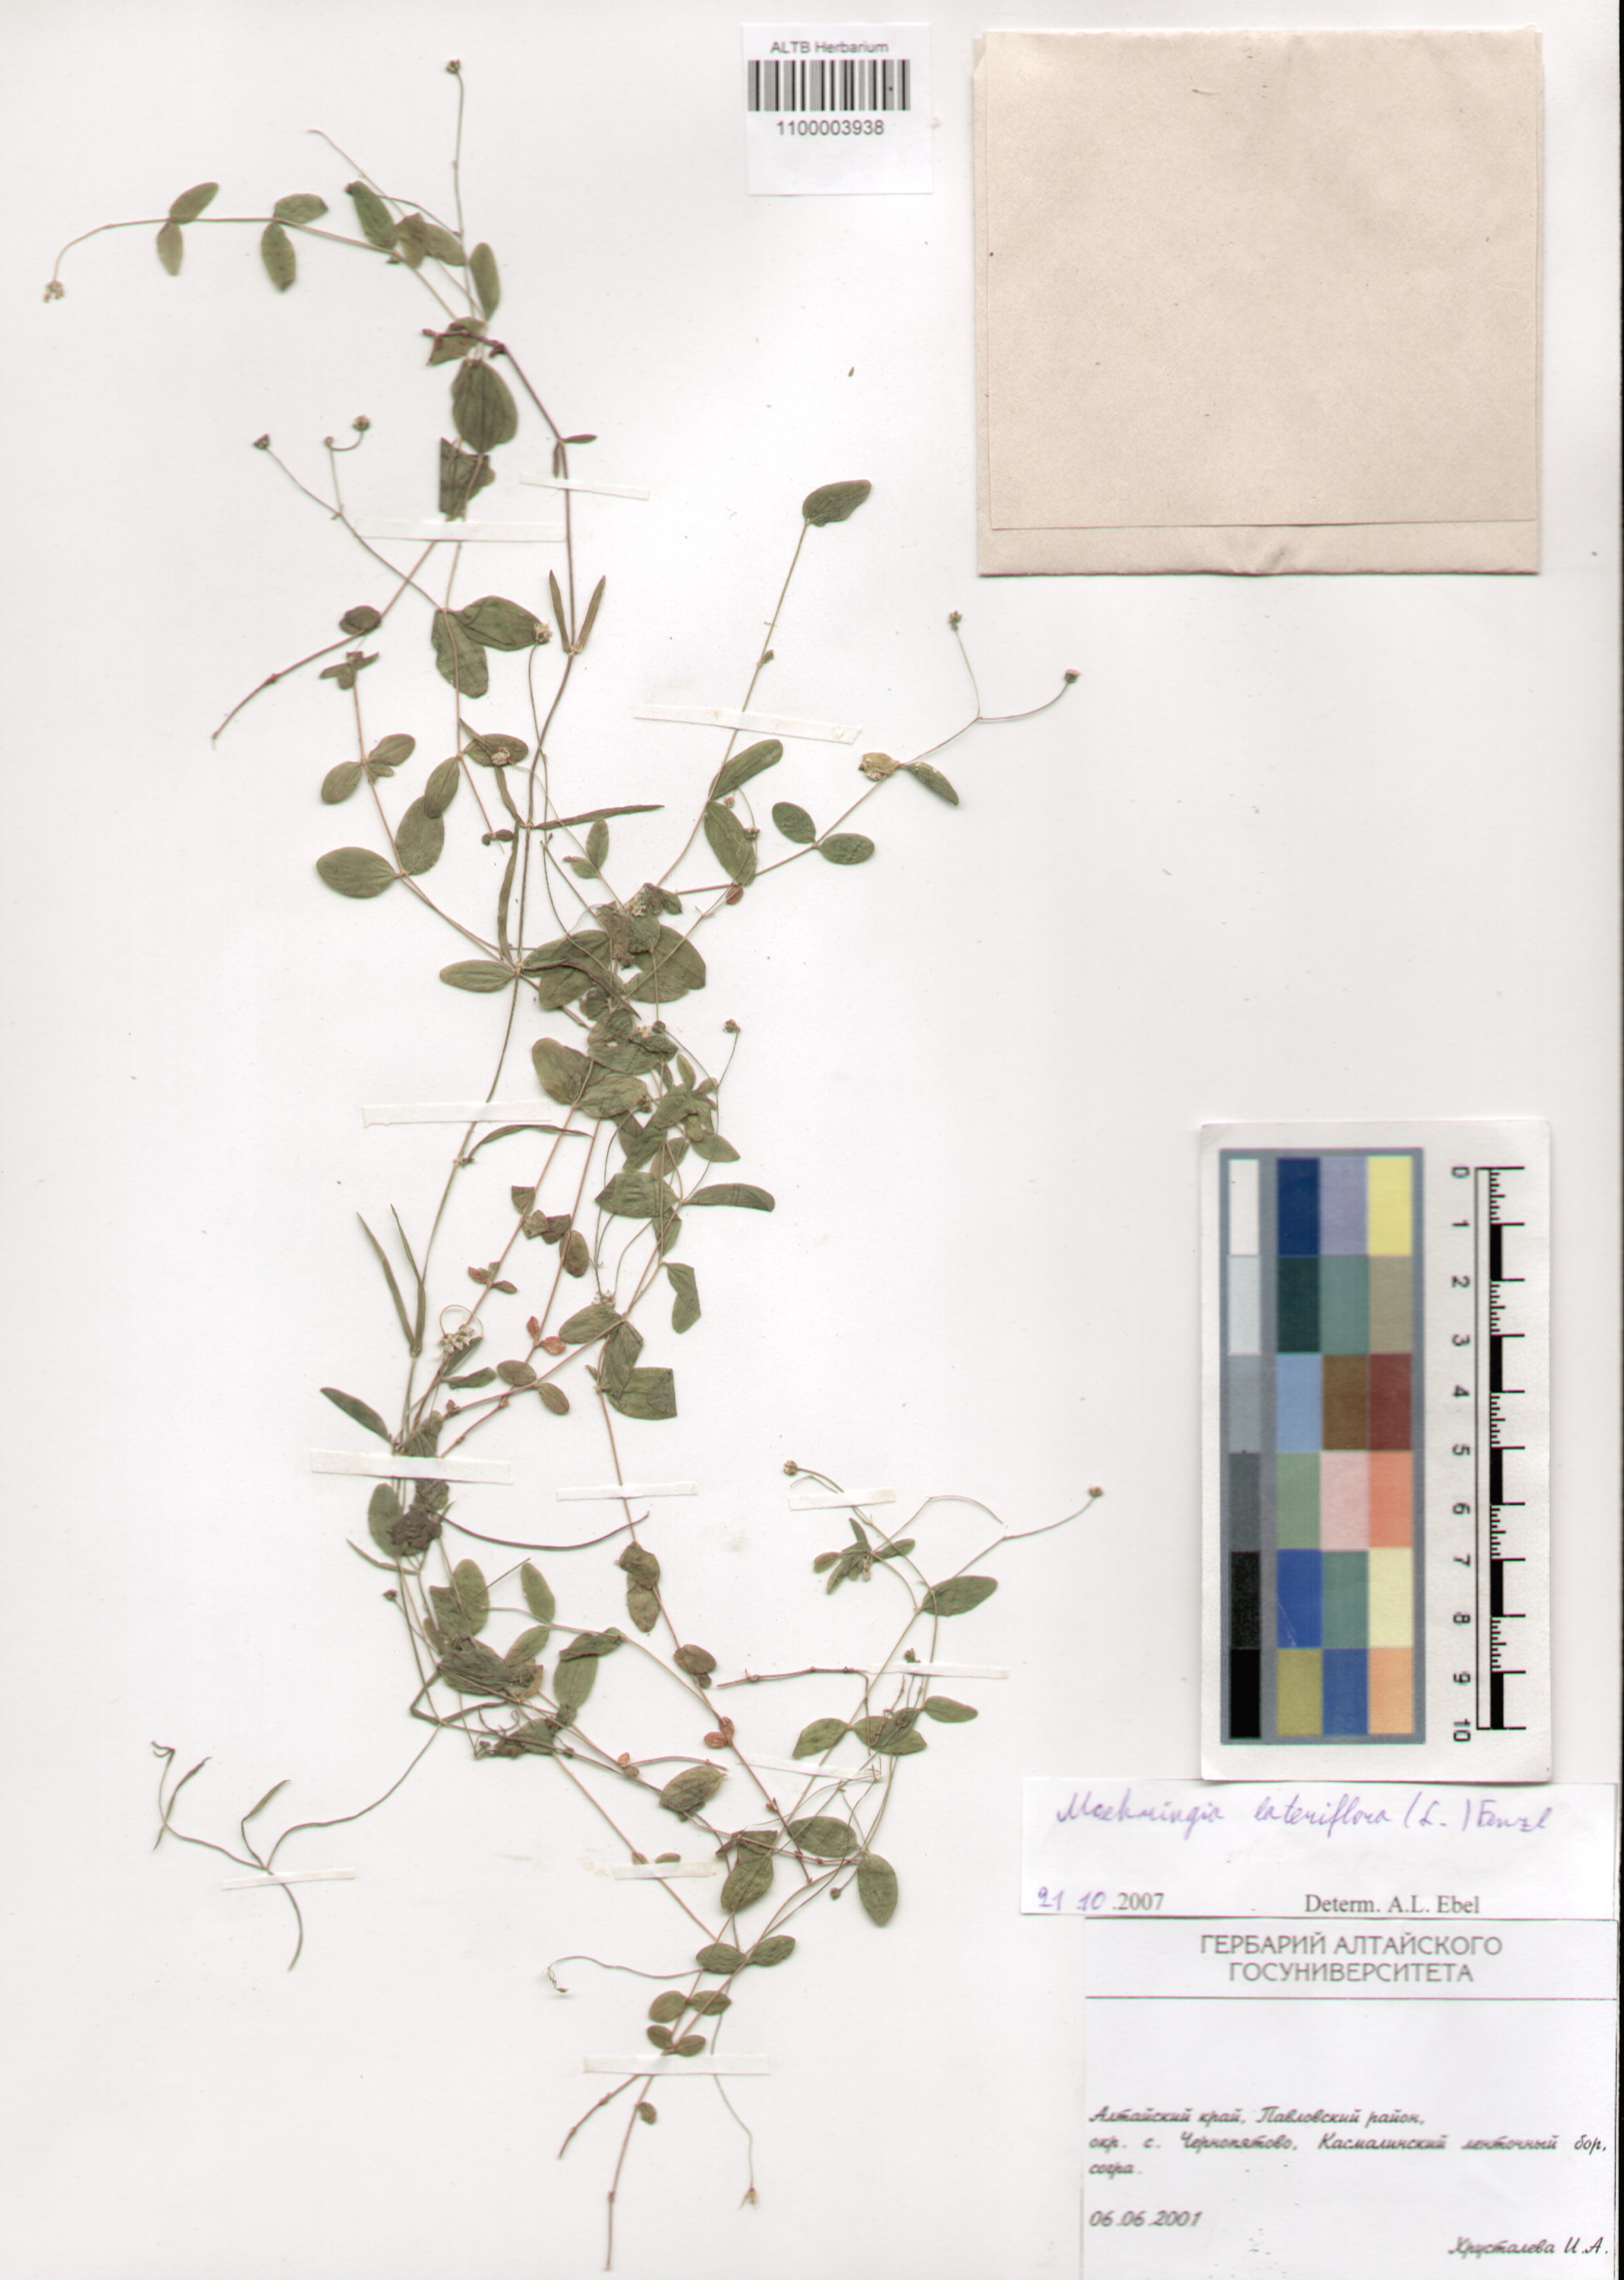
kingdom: Plantae
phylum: Tracheophyta
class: Magnoliopsida
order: Caryophyllales
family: Caryophyllaceae
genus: Moehringia
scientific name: Moehringia lateriflora
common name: Blunt-leaved sandwort
